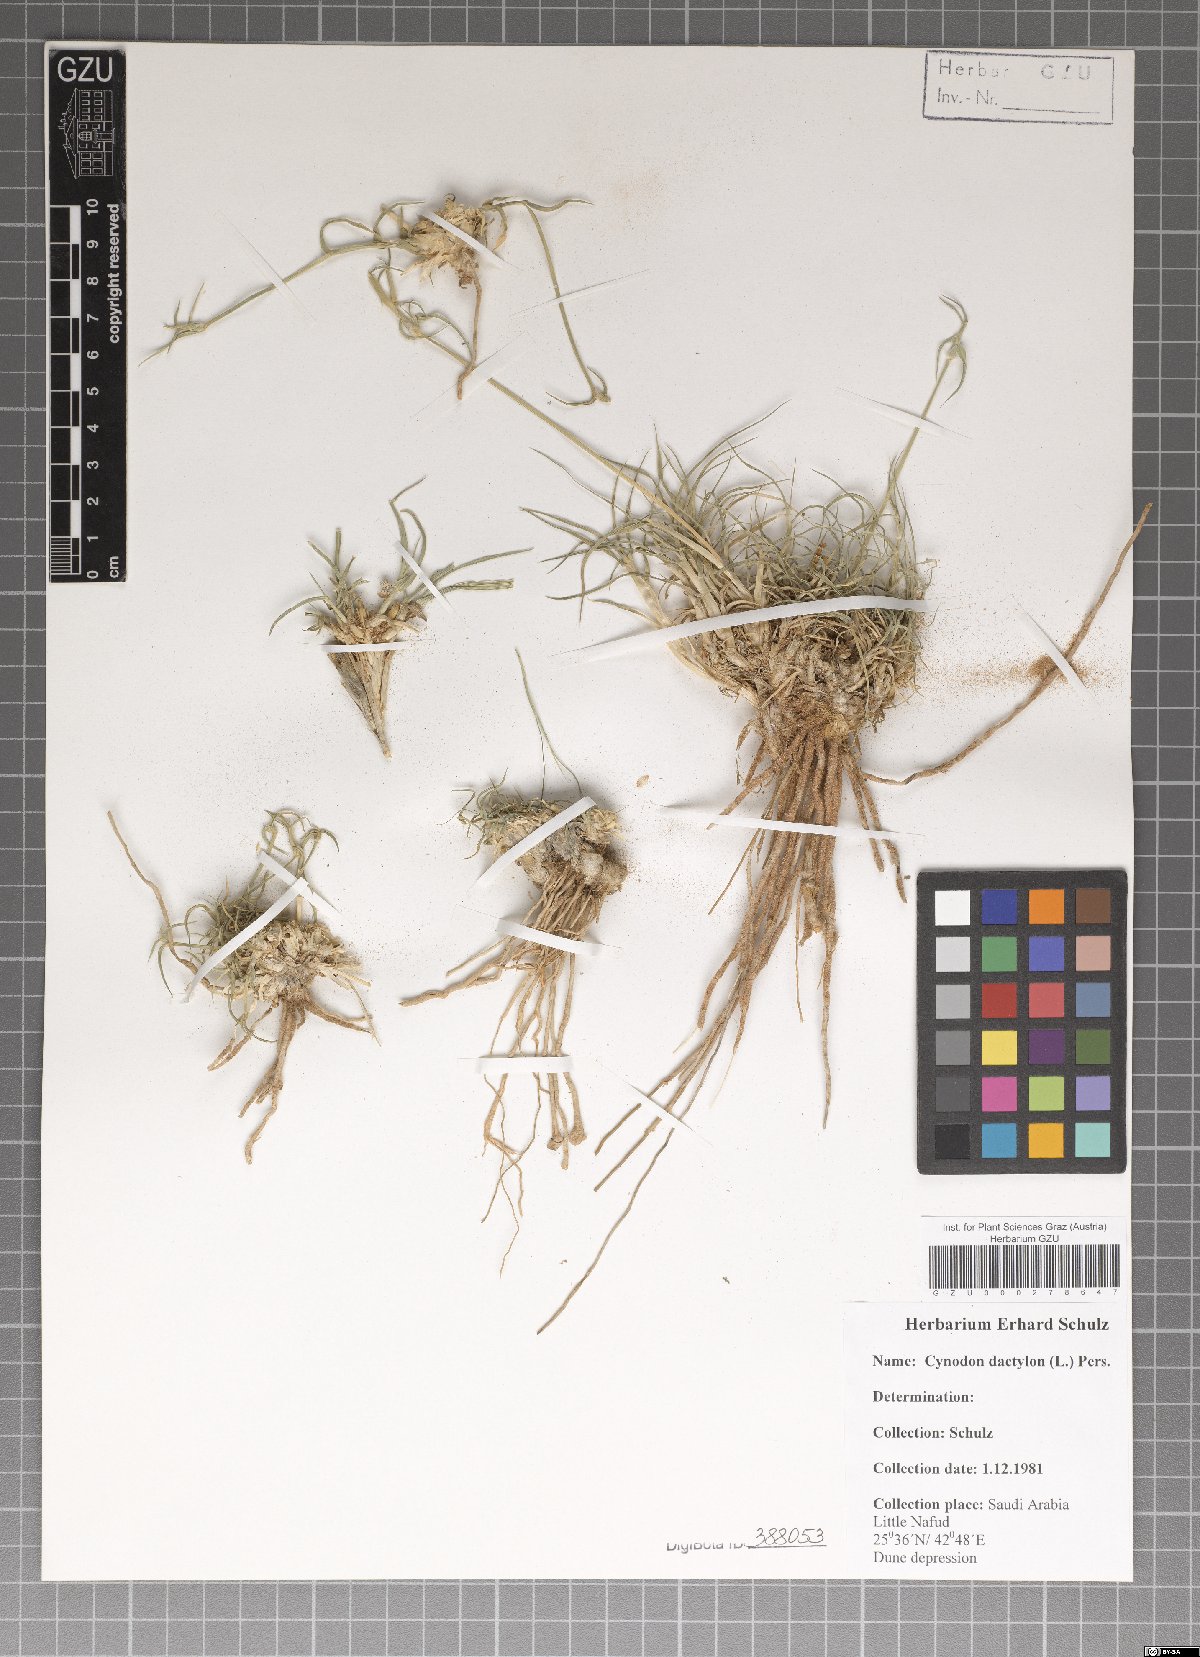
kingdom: Plantae
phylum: Tracheophyta
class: Liliopsida
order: Poales
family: Poaceae
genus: Cynodon
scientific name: Cynodon dactylon
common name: Bermuda grass
